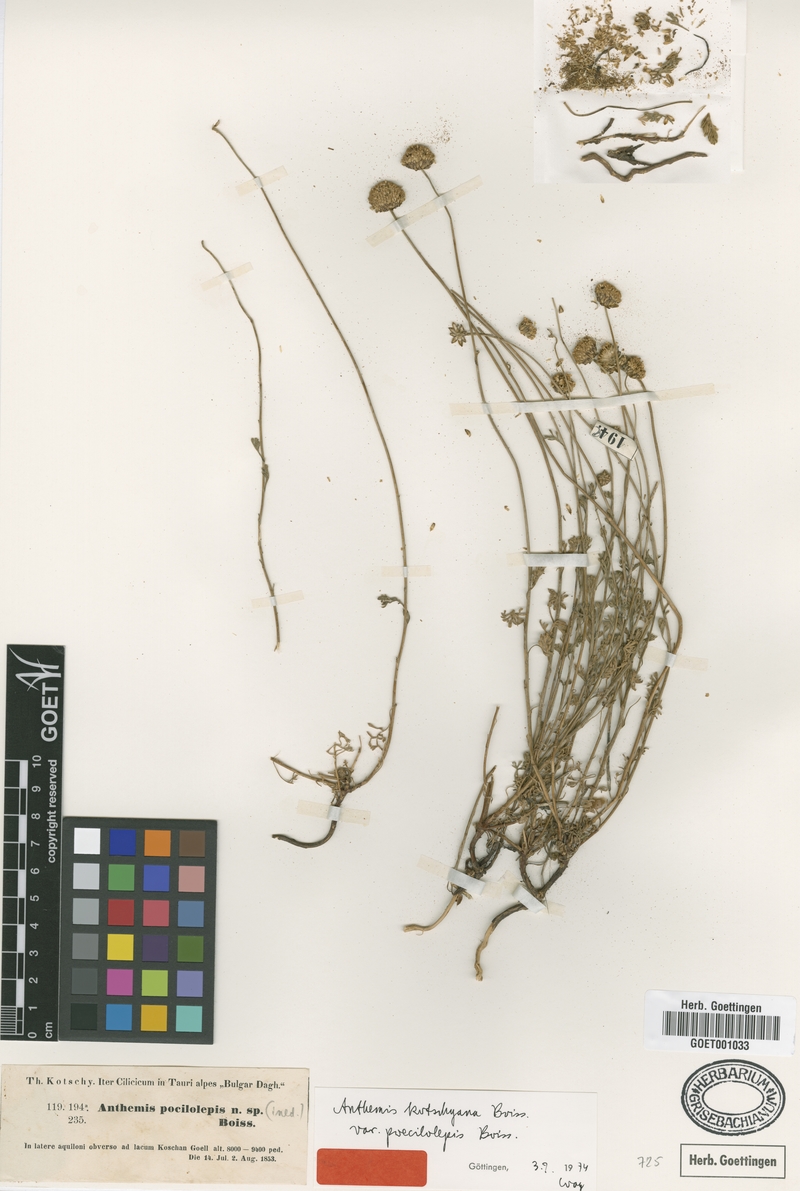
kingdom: Plantae
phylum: Tracheophyta
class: Magnoliopsida
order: Asterales
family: Asteraceae
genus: Anthemis
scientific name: Anthemis kotschyana
